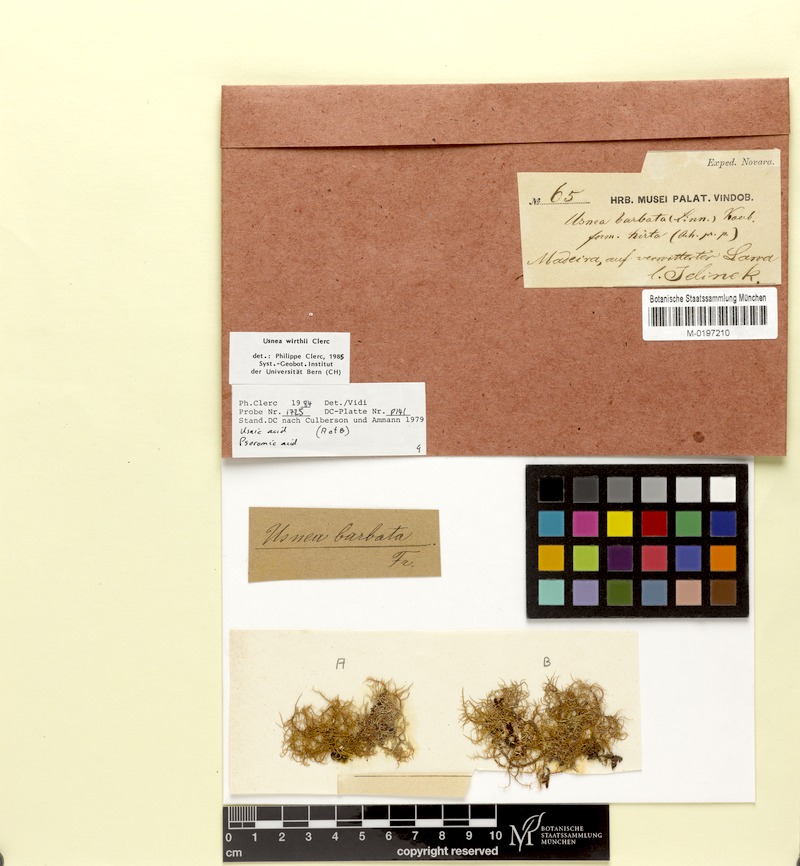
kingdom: Fungi
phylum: Ascomycota
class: Lecanoromycetes
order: Lecanorales
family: Parmeliaceae
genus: Usnea
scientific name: Usnea flavocardia
